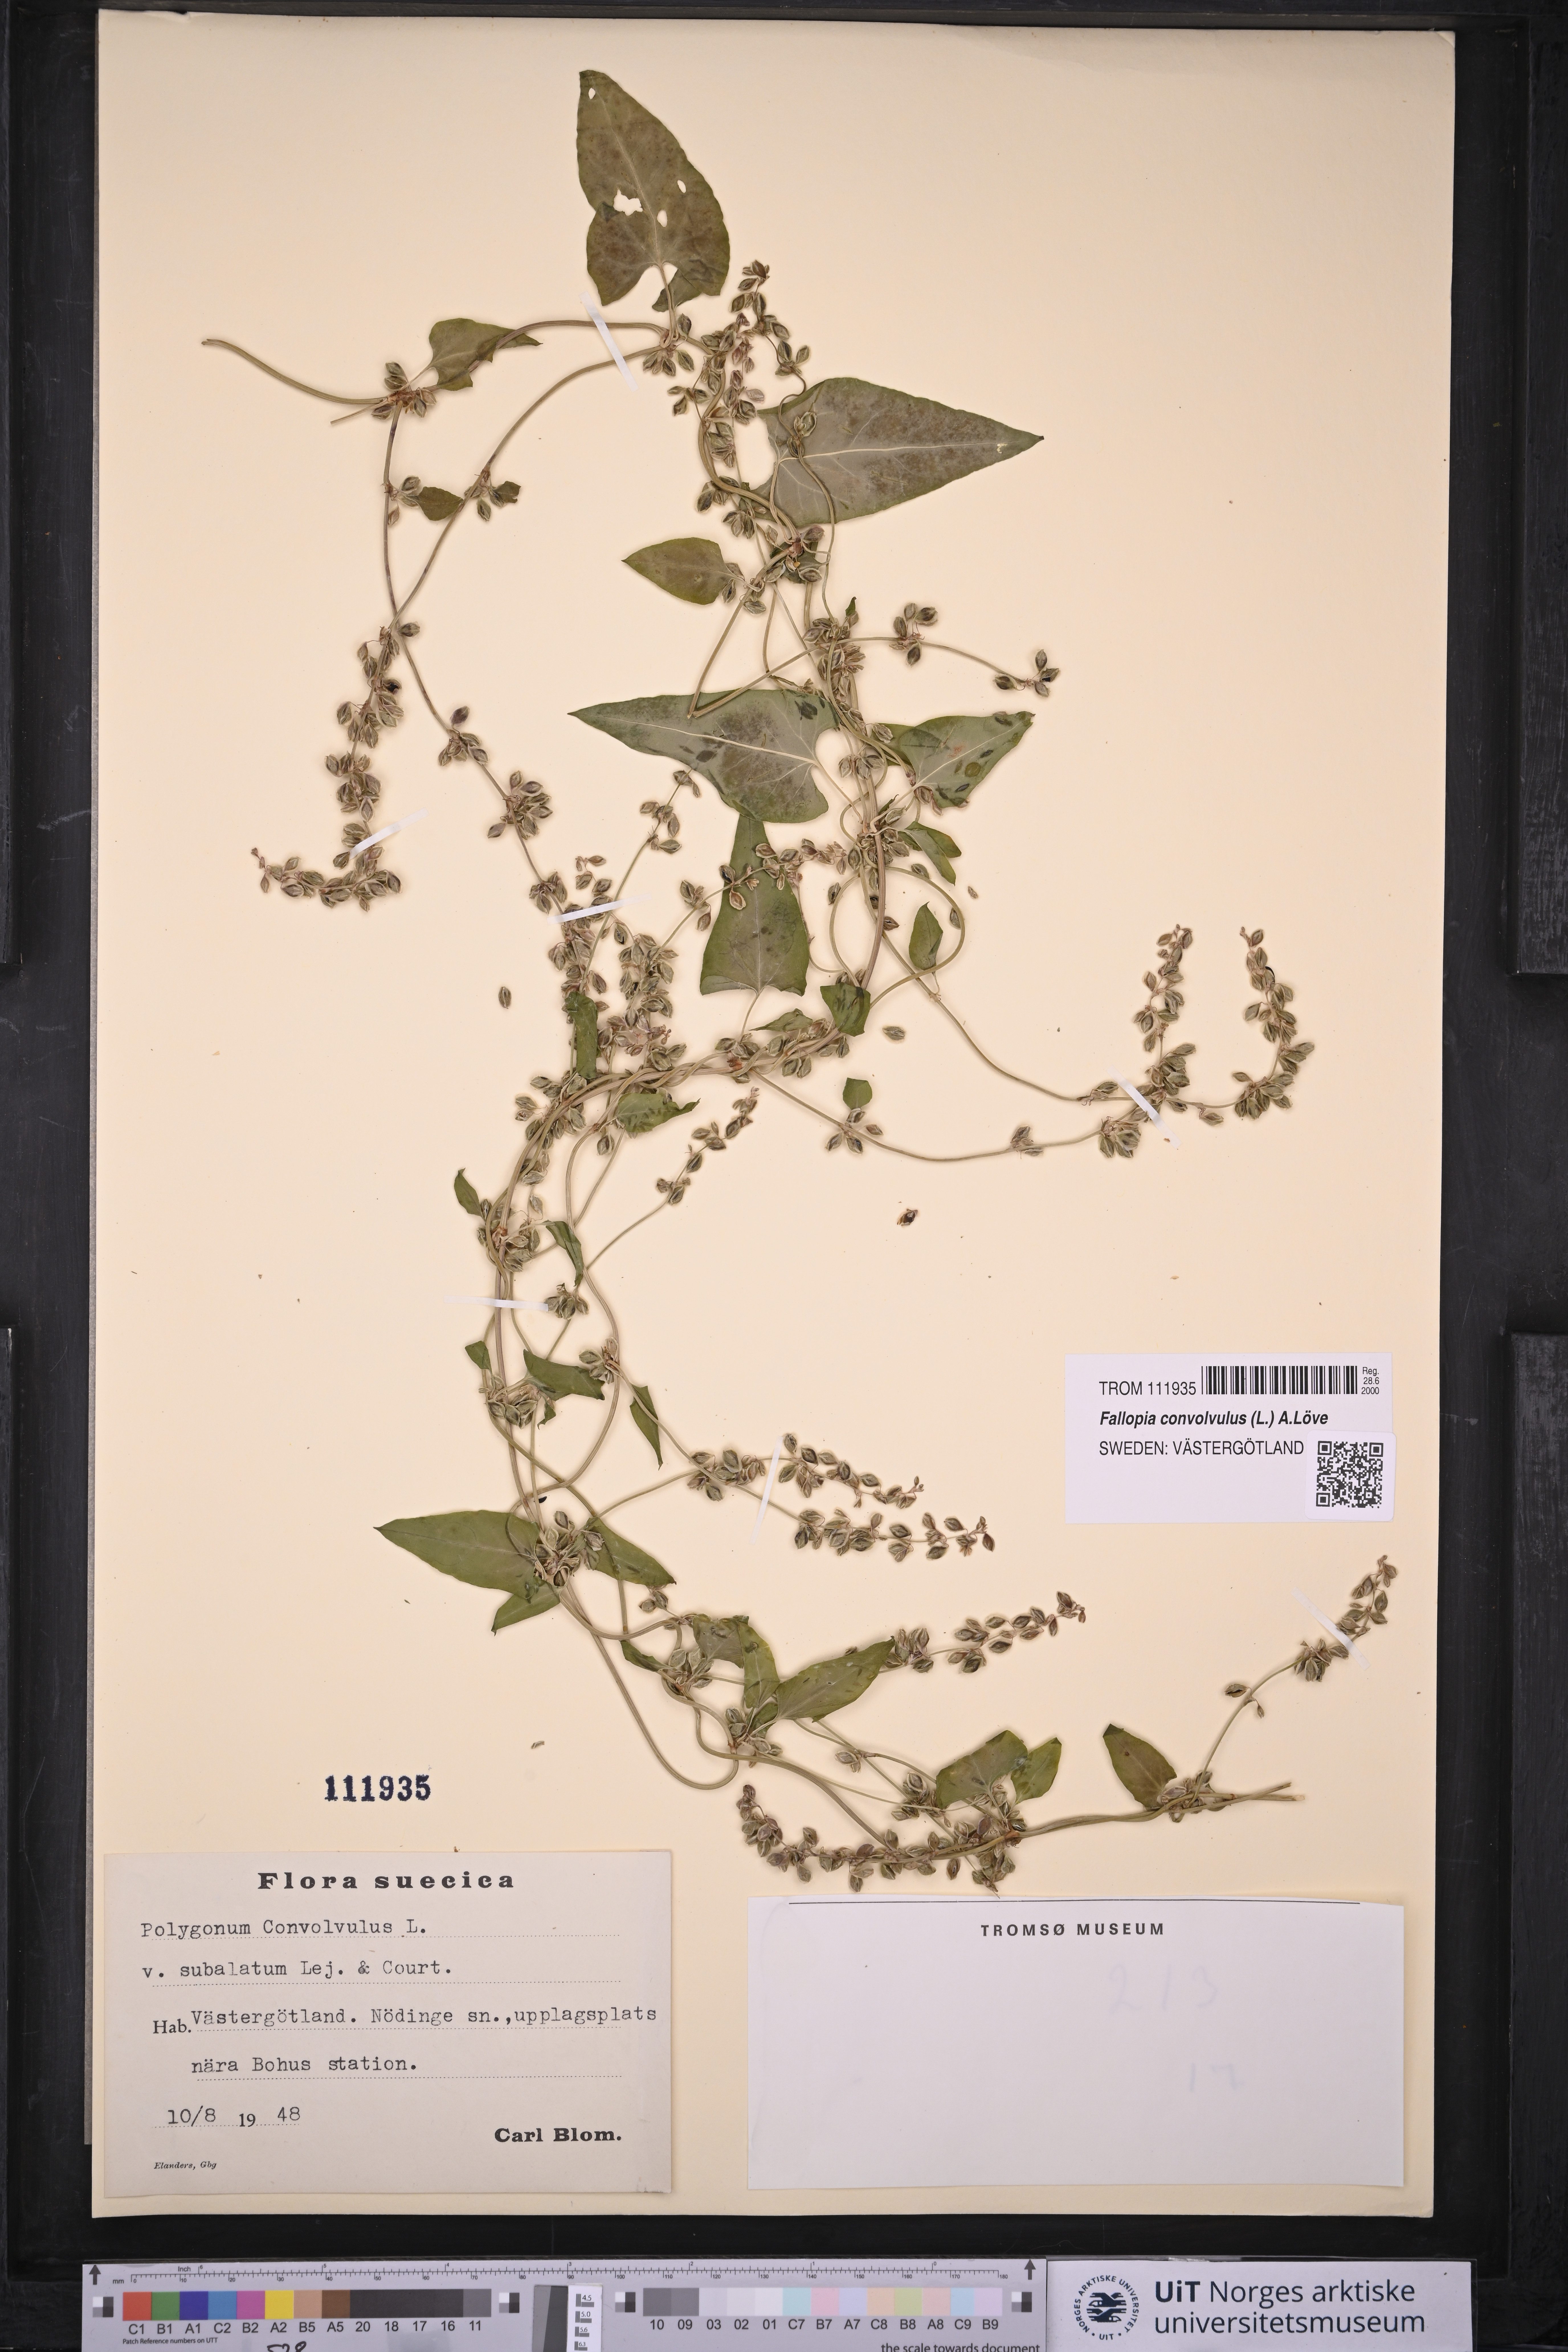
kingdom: Plantae
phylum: Tracheophyta
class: Magnoliopsida
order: Caryophyllales
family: Polygonaceae
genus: Fallopia
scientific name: Fallopia convolvulus
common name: Black bindweed
